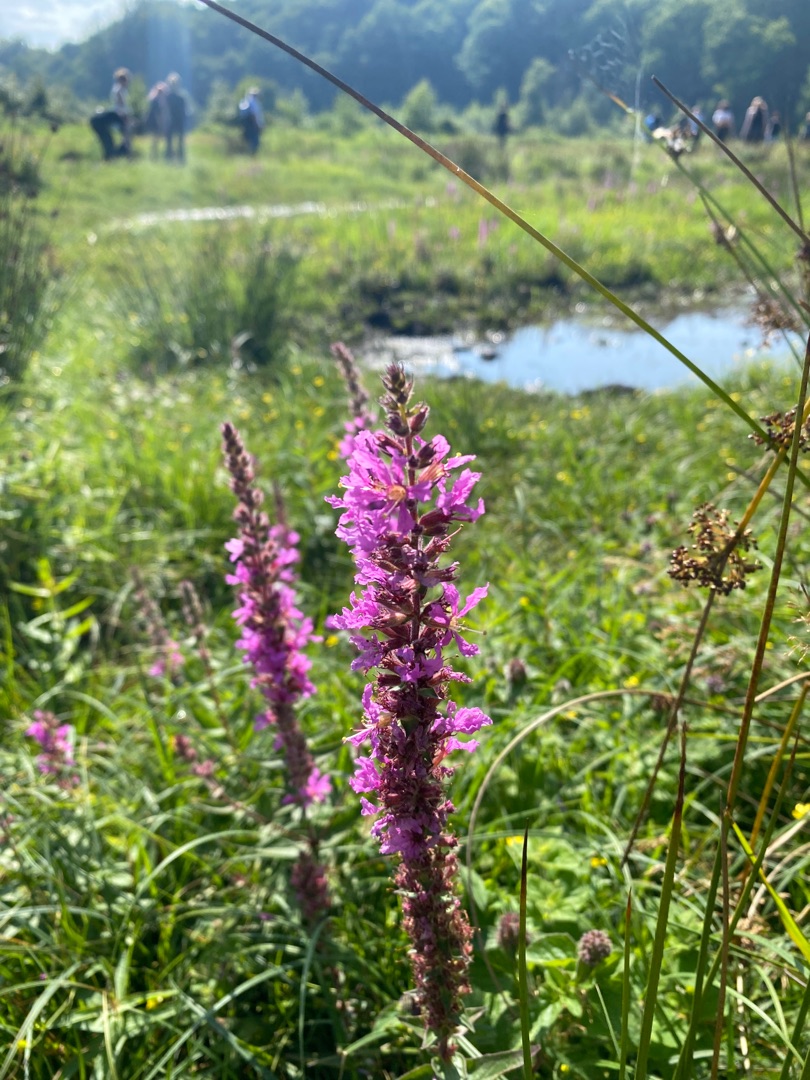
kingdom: Plantae
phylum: Tracheophyta
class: Magnoliopsida
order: Myrtales
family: Lythraceae
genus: Lythrum
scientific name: Lythrum salicaria
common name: Kattehale
